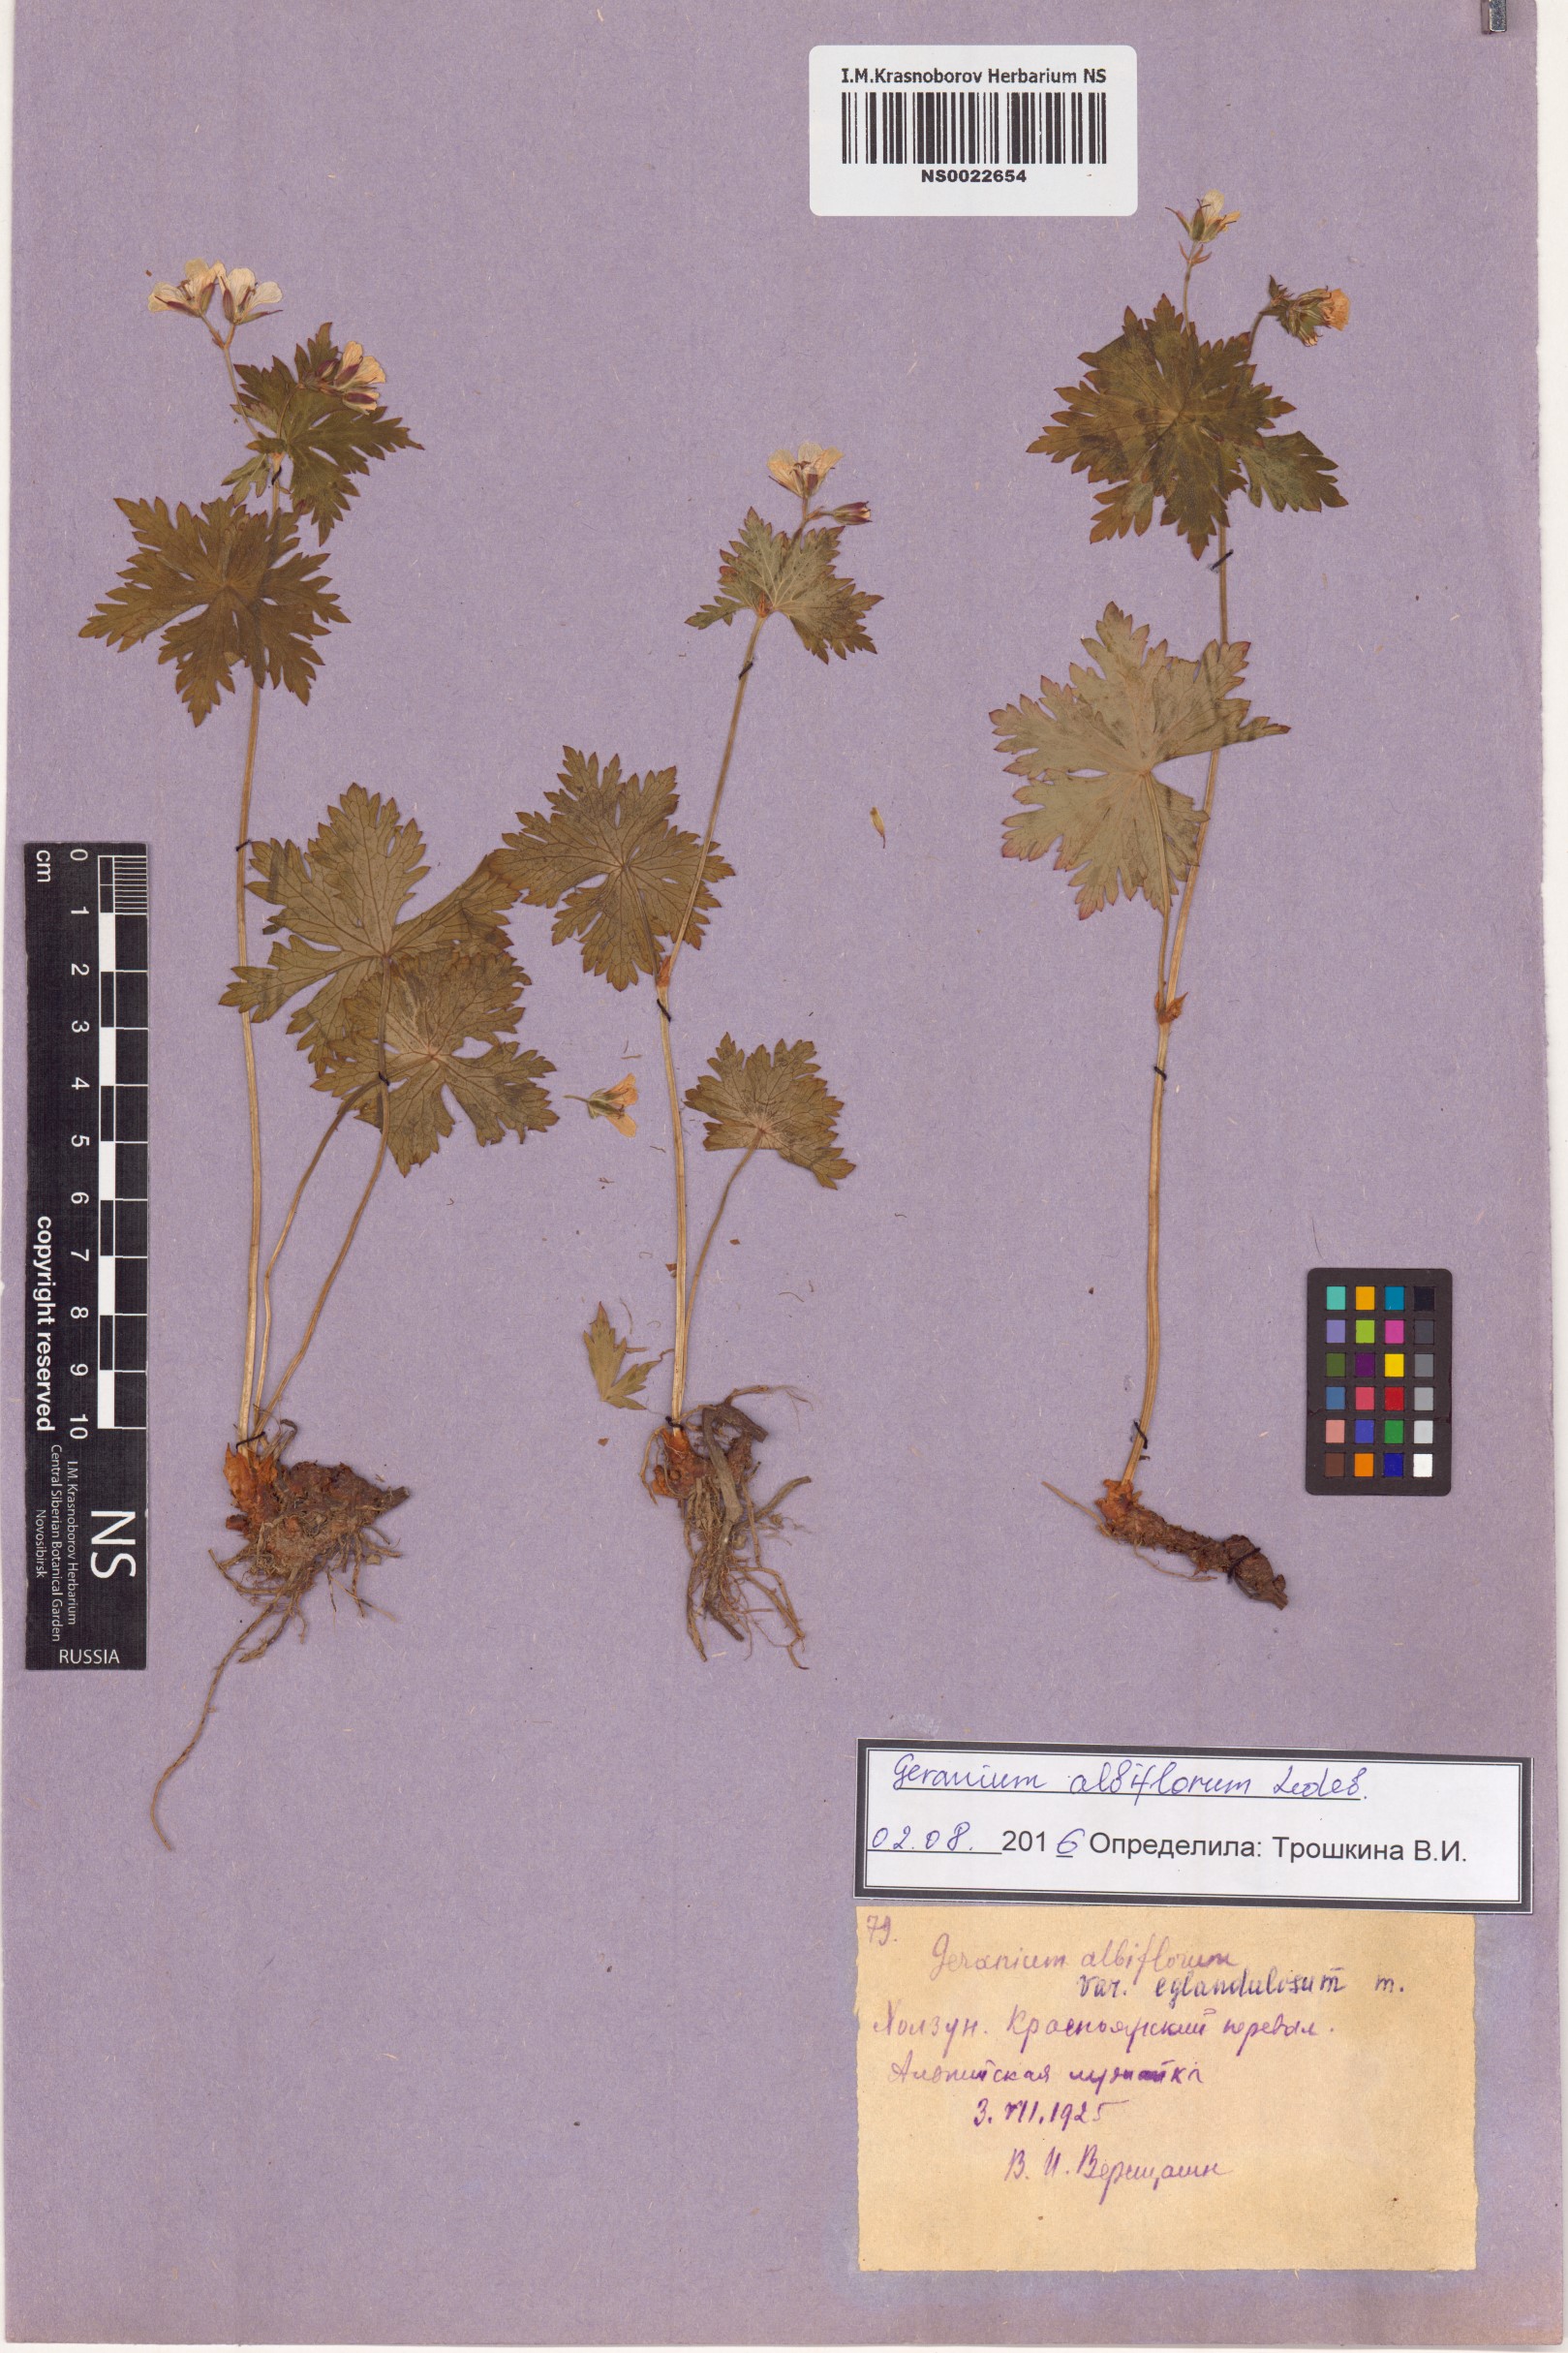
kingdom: Plantae
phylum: Tracheophyta
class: Magnoliopsida
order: Geraniales
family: Geraniaceae
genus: Geranium
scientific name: Geranium albiflorum
